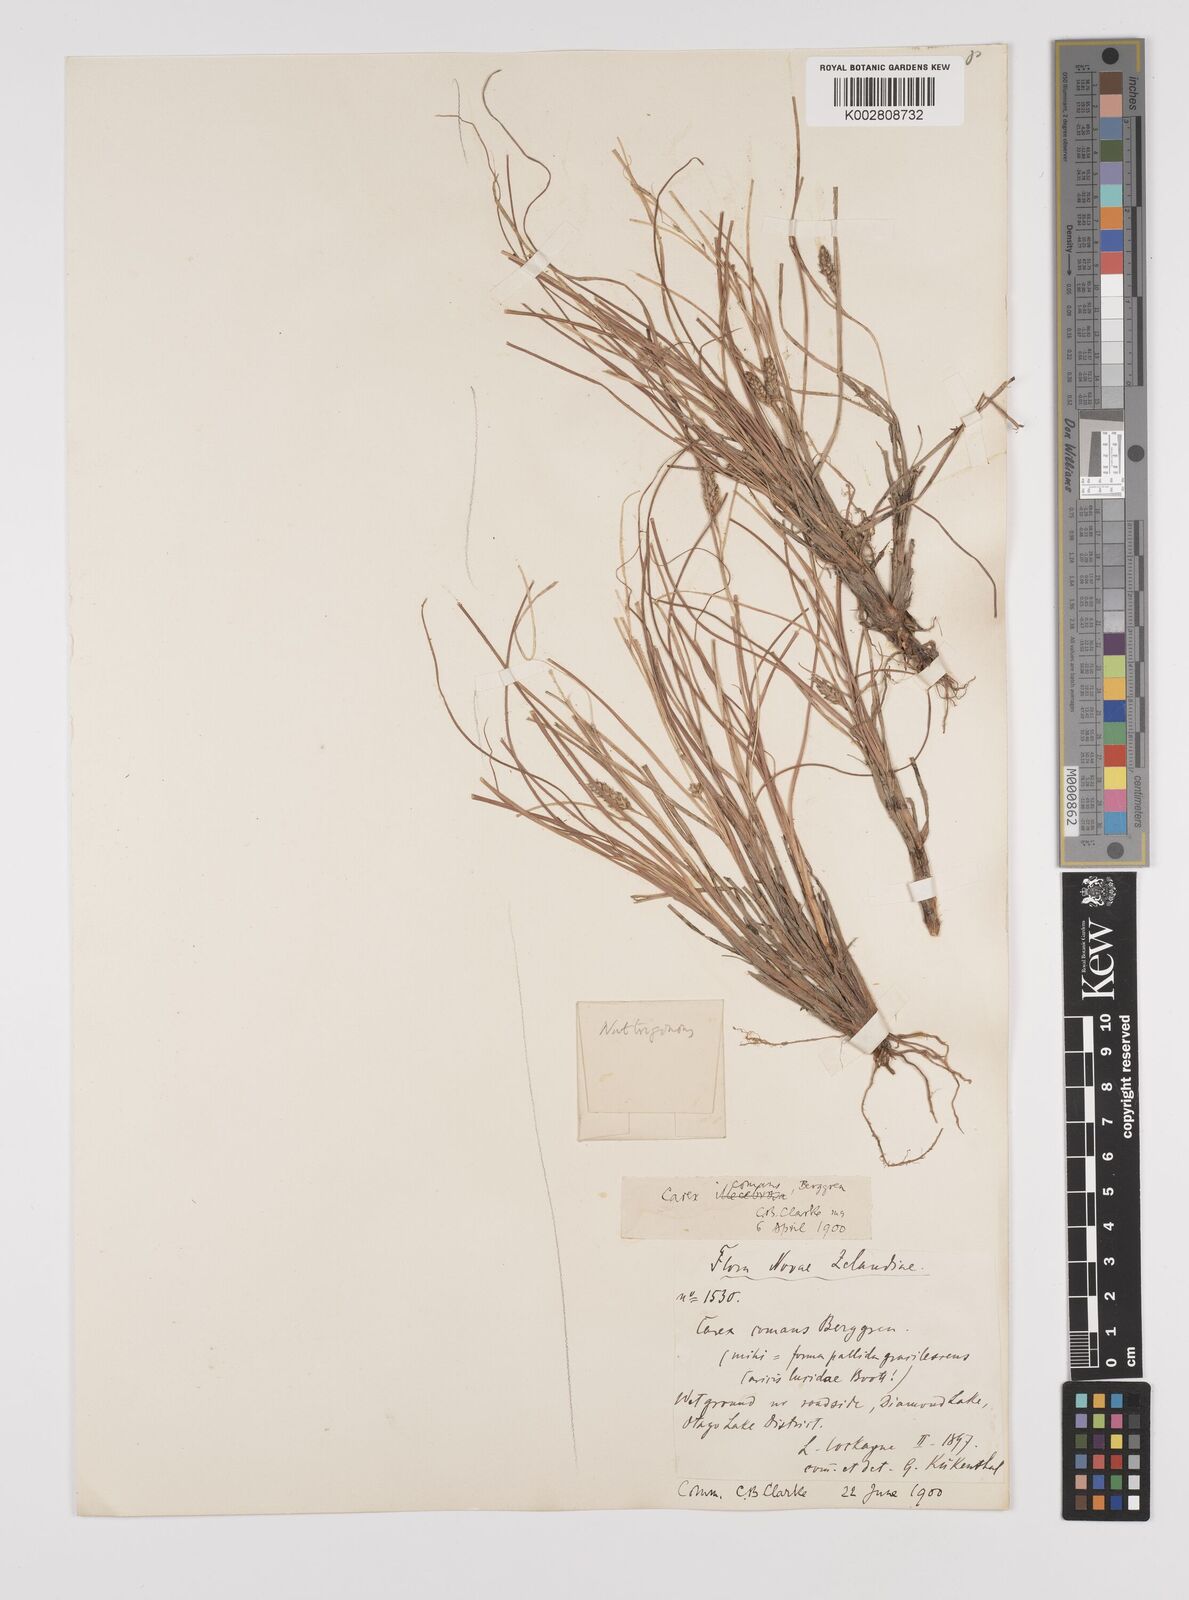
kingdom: Plantae
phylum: Tracheophyta
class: Liliopsida
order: Poales
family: Cyperaceae
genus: Carex
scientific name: Carex comans
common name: Longwood tussock
